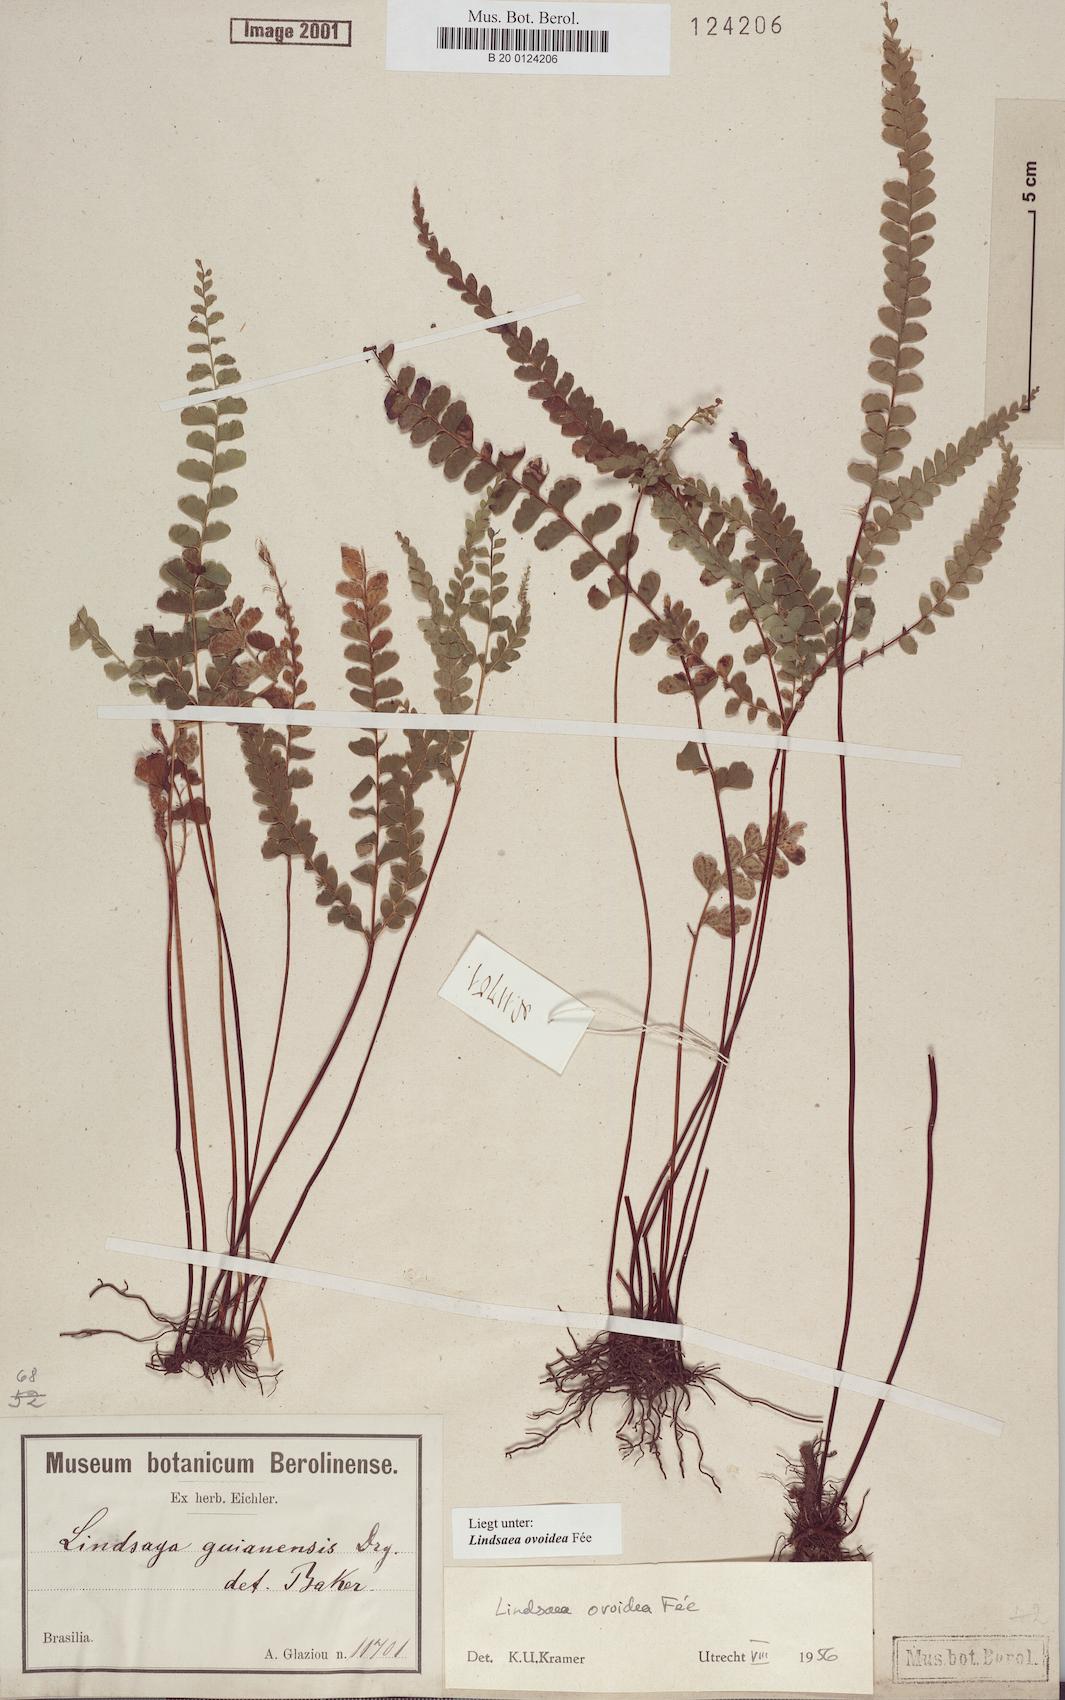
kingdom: Plantae
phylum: Tracheophyta
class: Polypodiopsida
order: Polypodiales
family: Lindsaeaceae
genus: Lindsaea
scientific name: Lindsaea ovoidea
